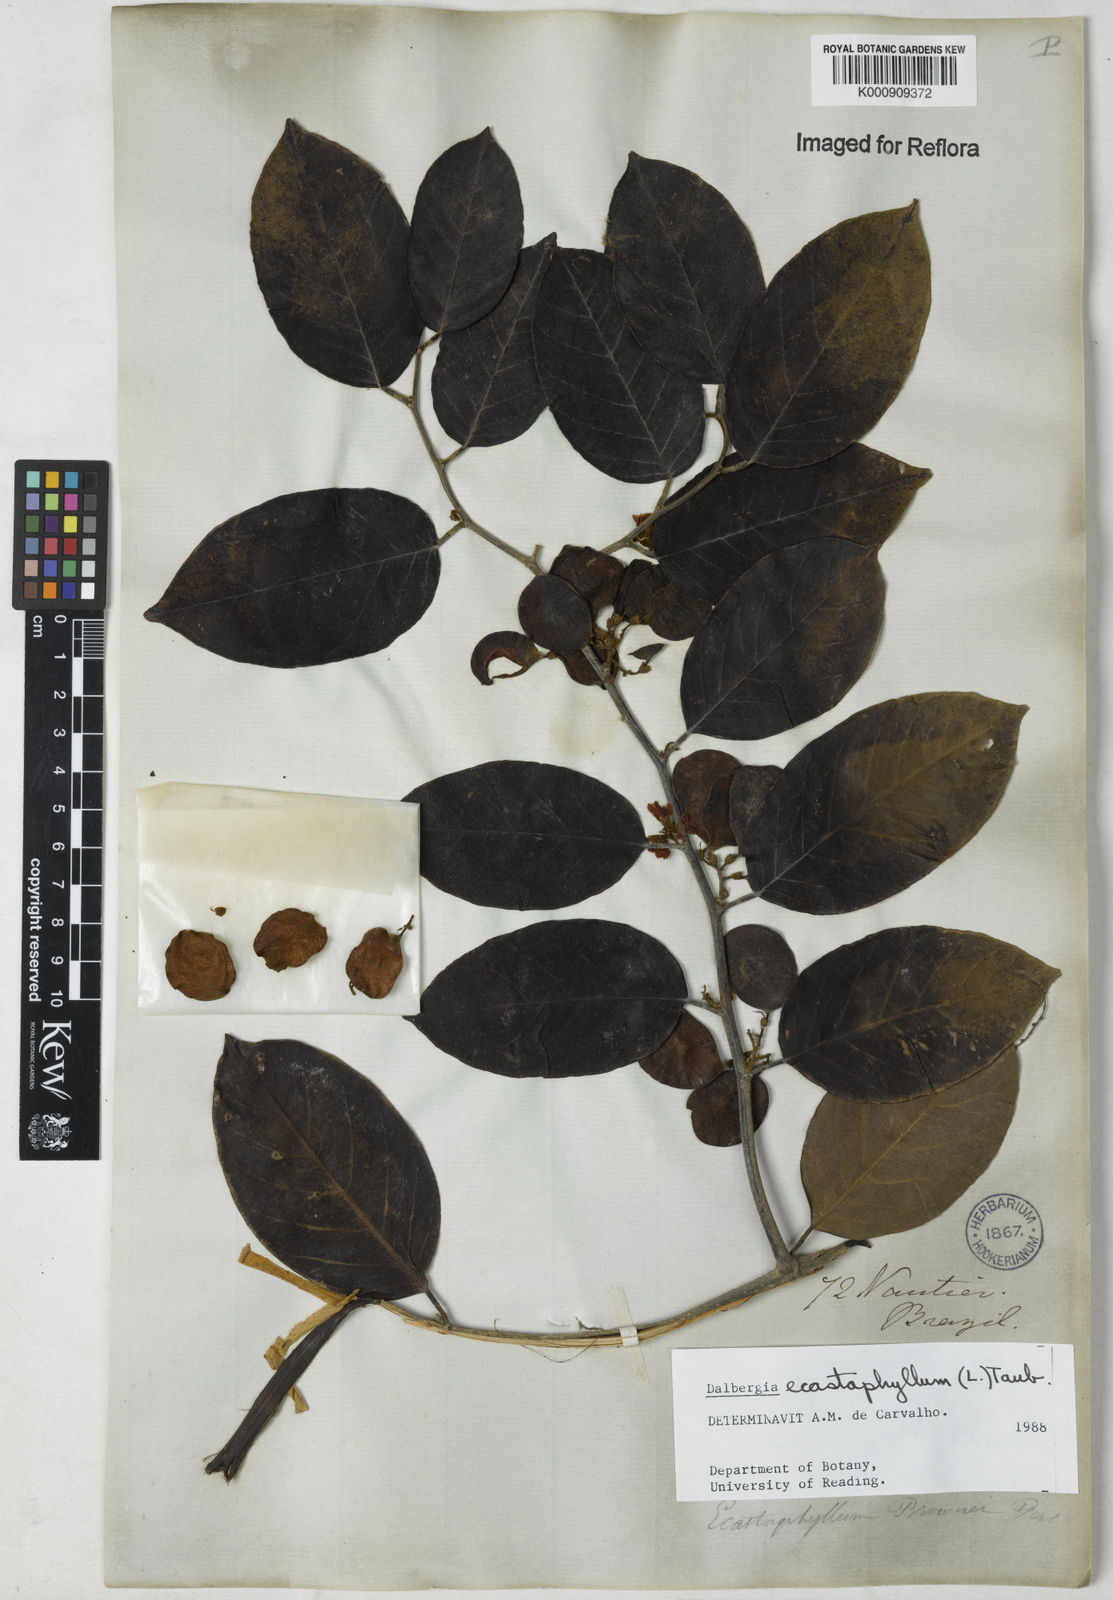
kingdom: Plantae
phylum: Tracheophyta
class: Magnoliopsida
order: Fabales
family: Fabaceae
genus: Dalbergia
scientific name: Dalbergia ecastaphyllum
